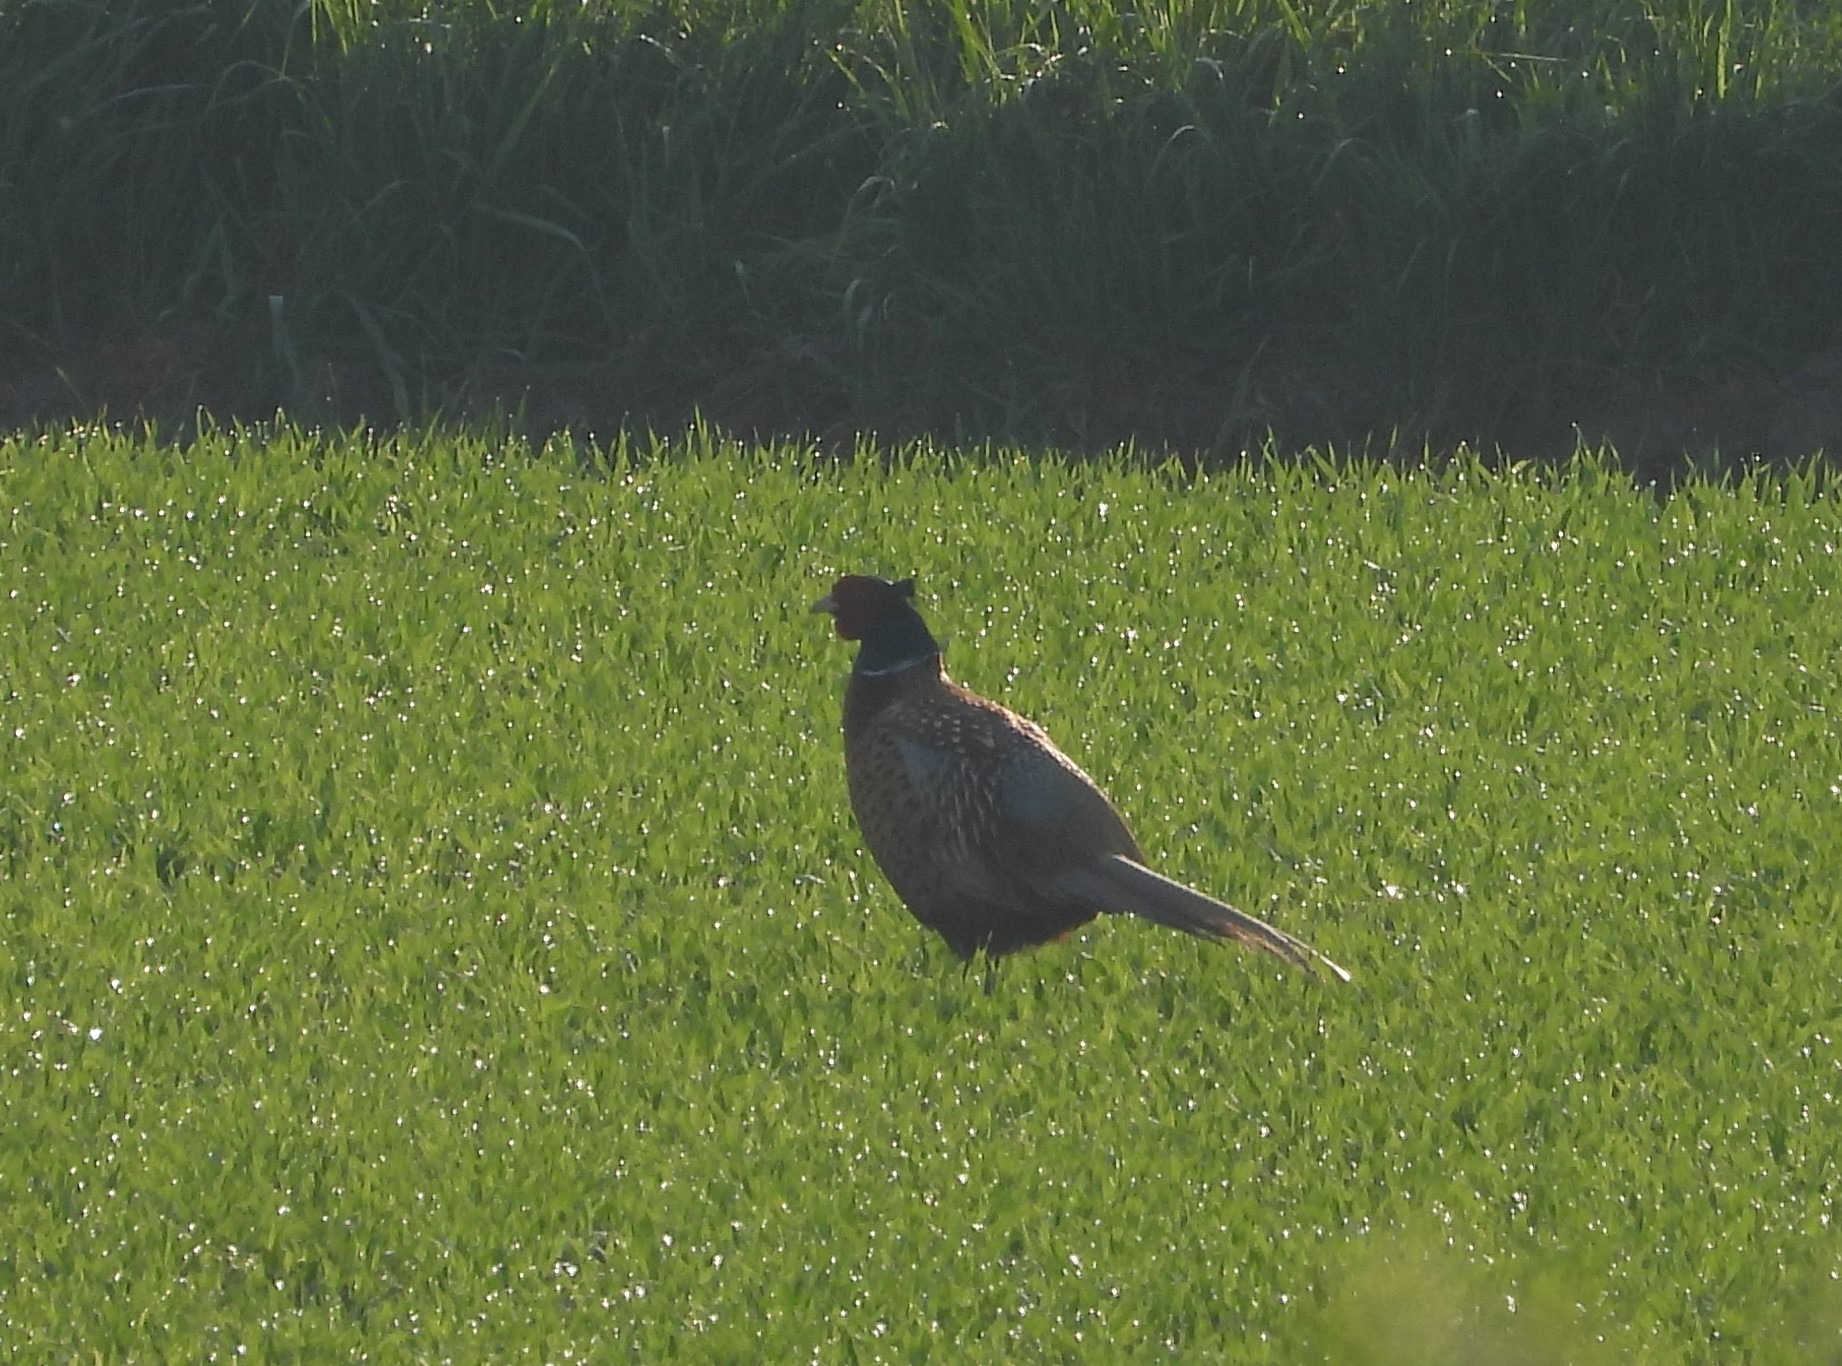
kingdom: Animalia
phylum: Chordata
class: Aves
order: Galliformes
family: Phasianidae
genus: Phasianus
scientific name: Phasianus colchicus
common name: Fasan
